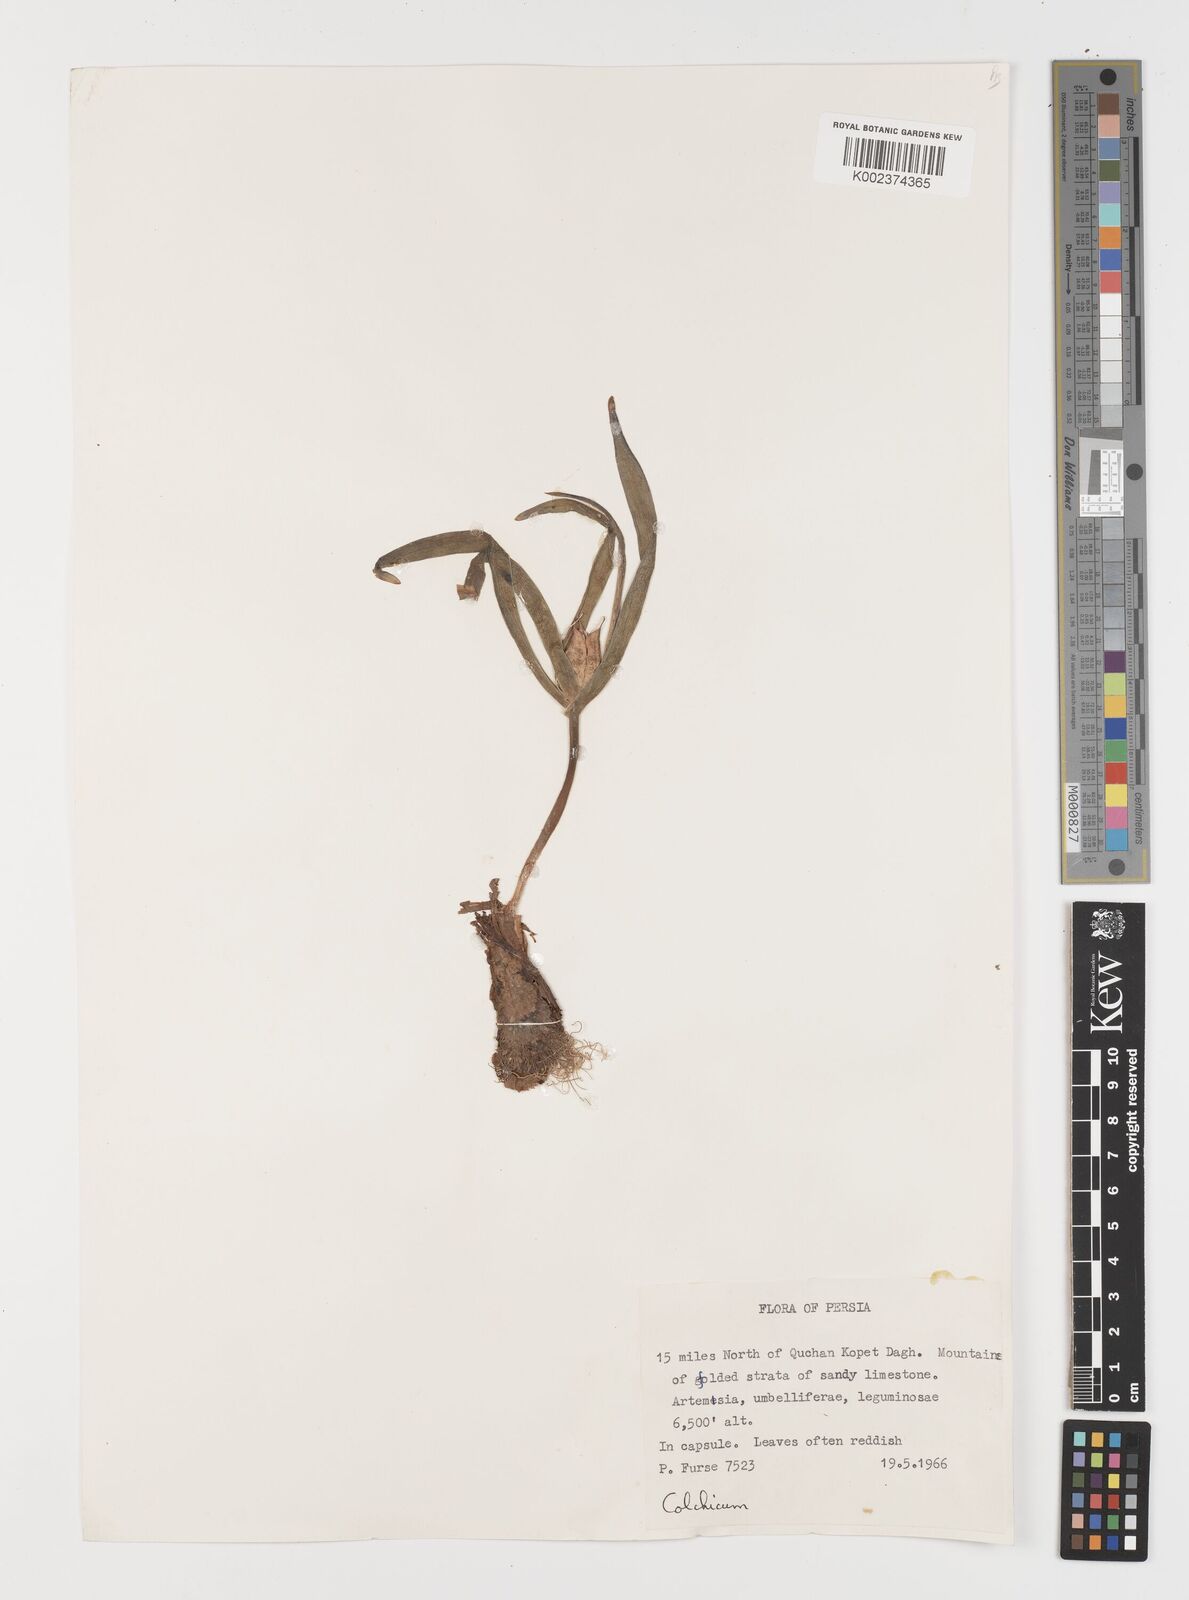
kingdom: Plantae
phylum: Tracheophyta
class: Liliopsida
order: Liliales
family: Colchicaceae
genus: Colchicum
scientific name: Colchicum
